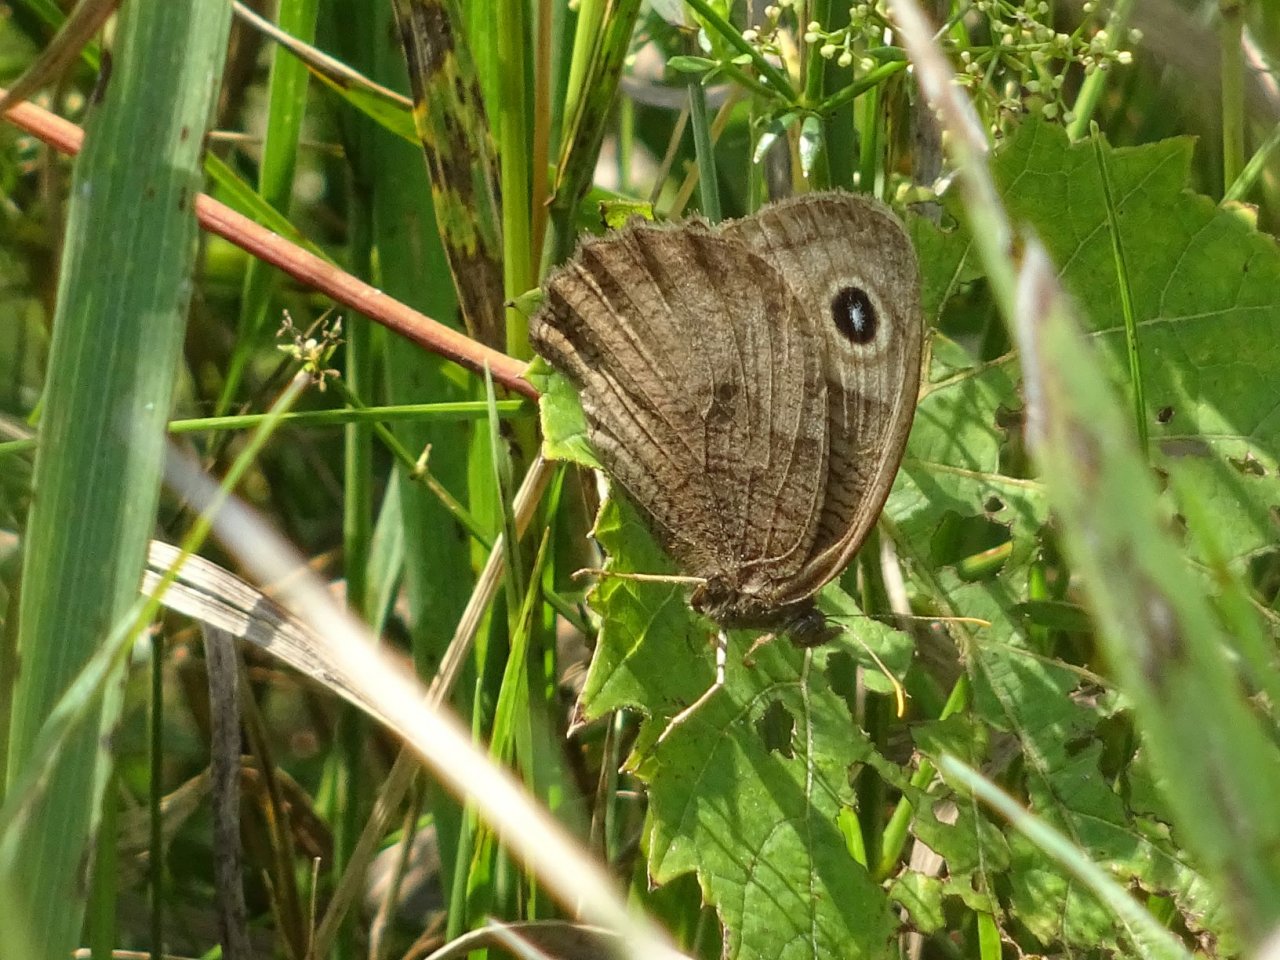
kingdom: Animalia
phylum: Arthropoda
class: Insecta
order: Lepidoptera
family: Nymphalidae
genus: Cercyonis
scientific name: Cercyonis pegala
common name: Common Wood-Nymph
